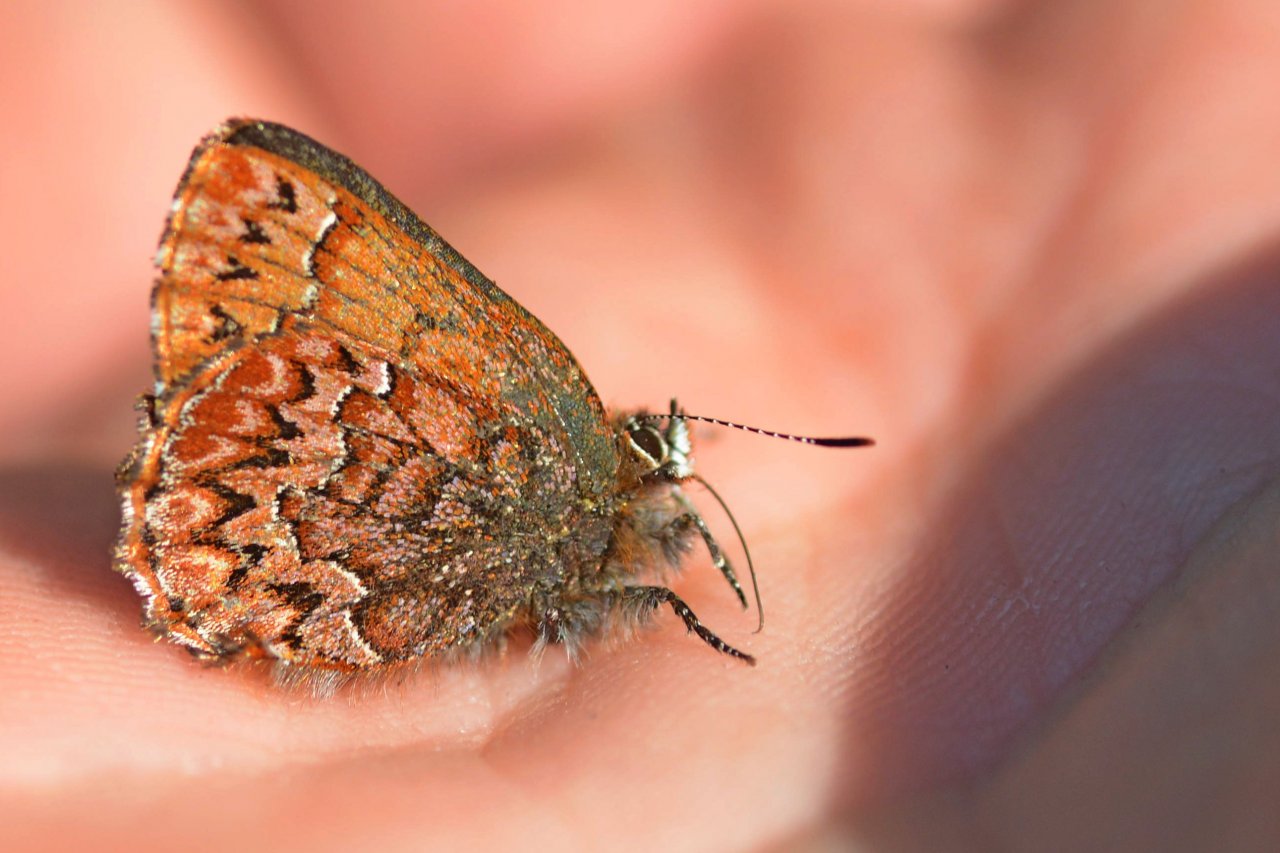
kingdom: Animalia
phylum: Arthropoda
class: Insecta
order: Lepidoptera
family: Lycaenidae
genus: Incisalia
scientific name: Incisalia eryphon
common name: Western Pine Elfin
